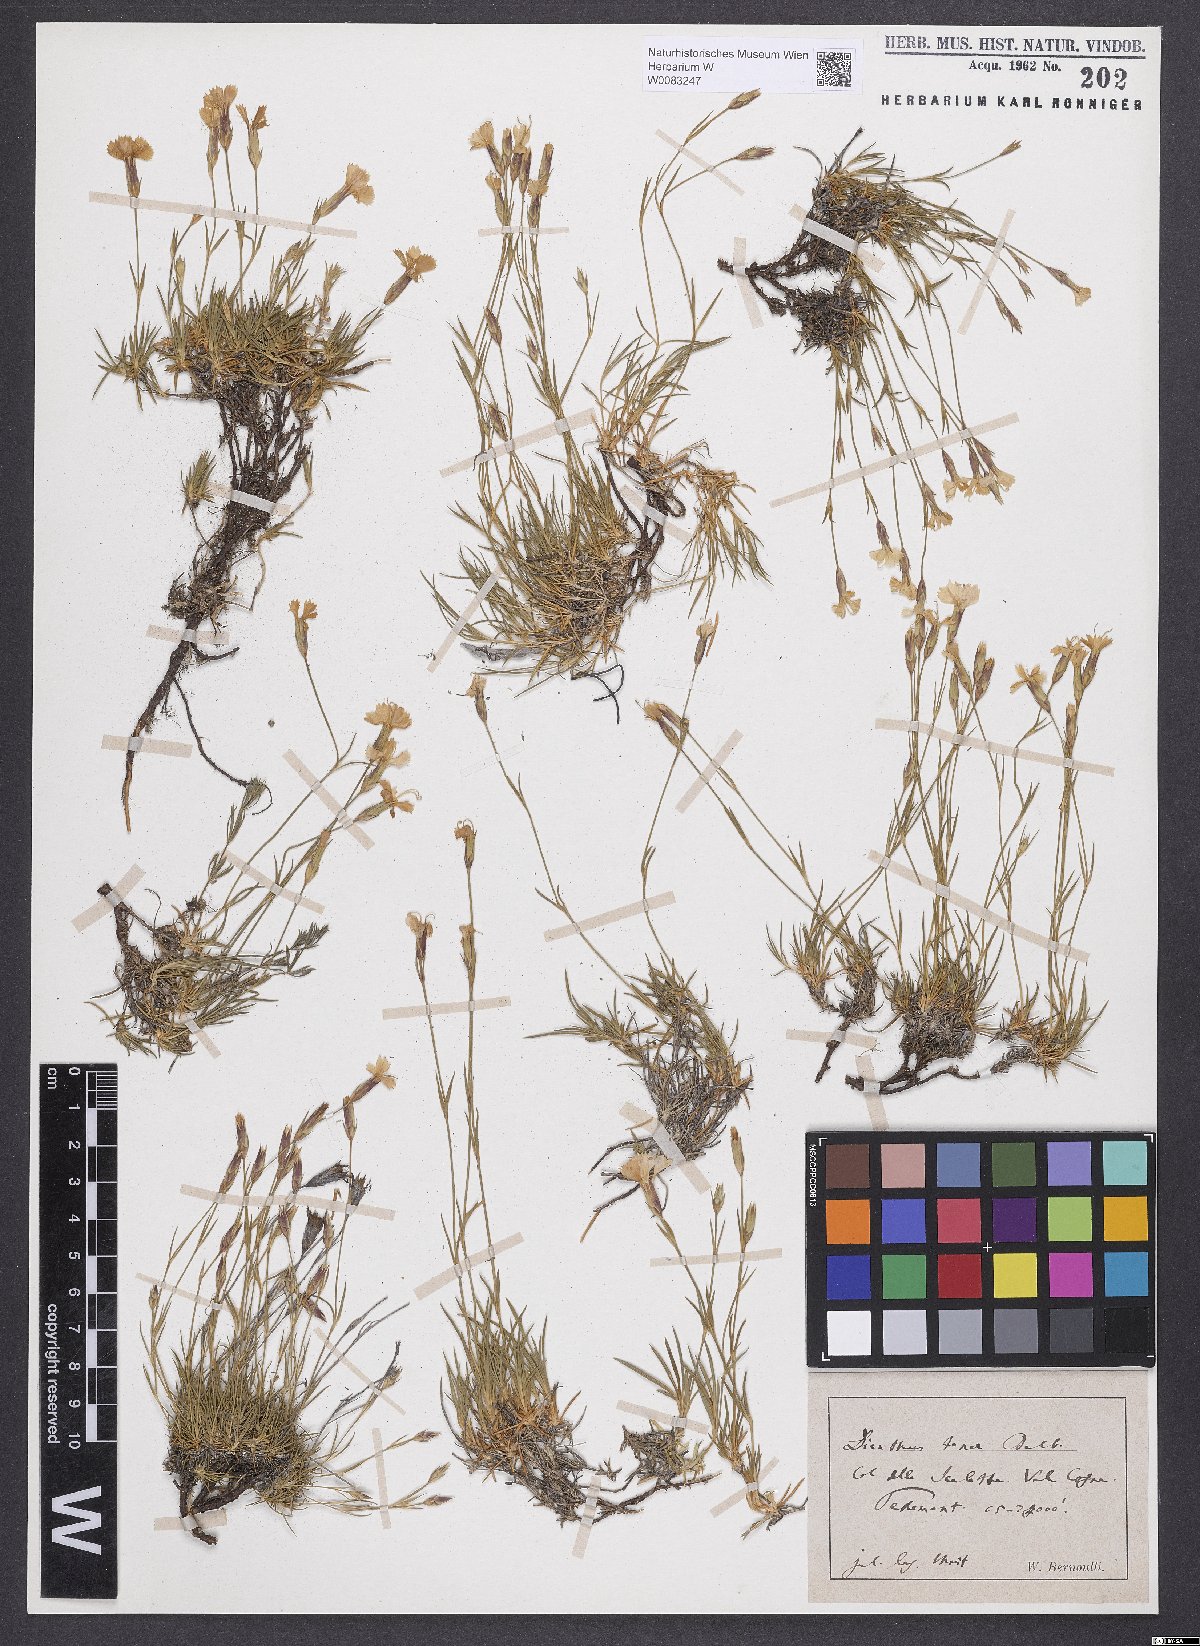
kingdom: Plantae
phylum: Tracheophyta
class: Magnoliopsida
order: Caryophyllales
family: Caryophyllaceae
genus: Dianthus
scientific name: Dianthus furcatus
